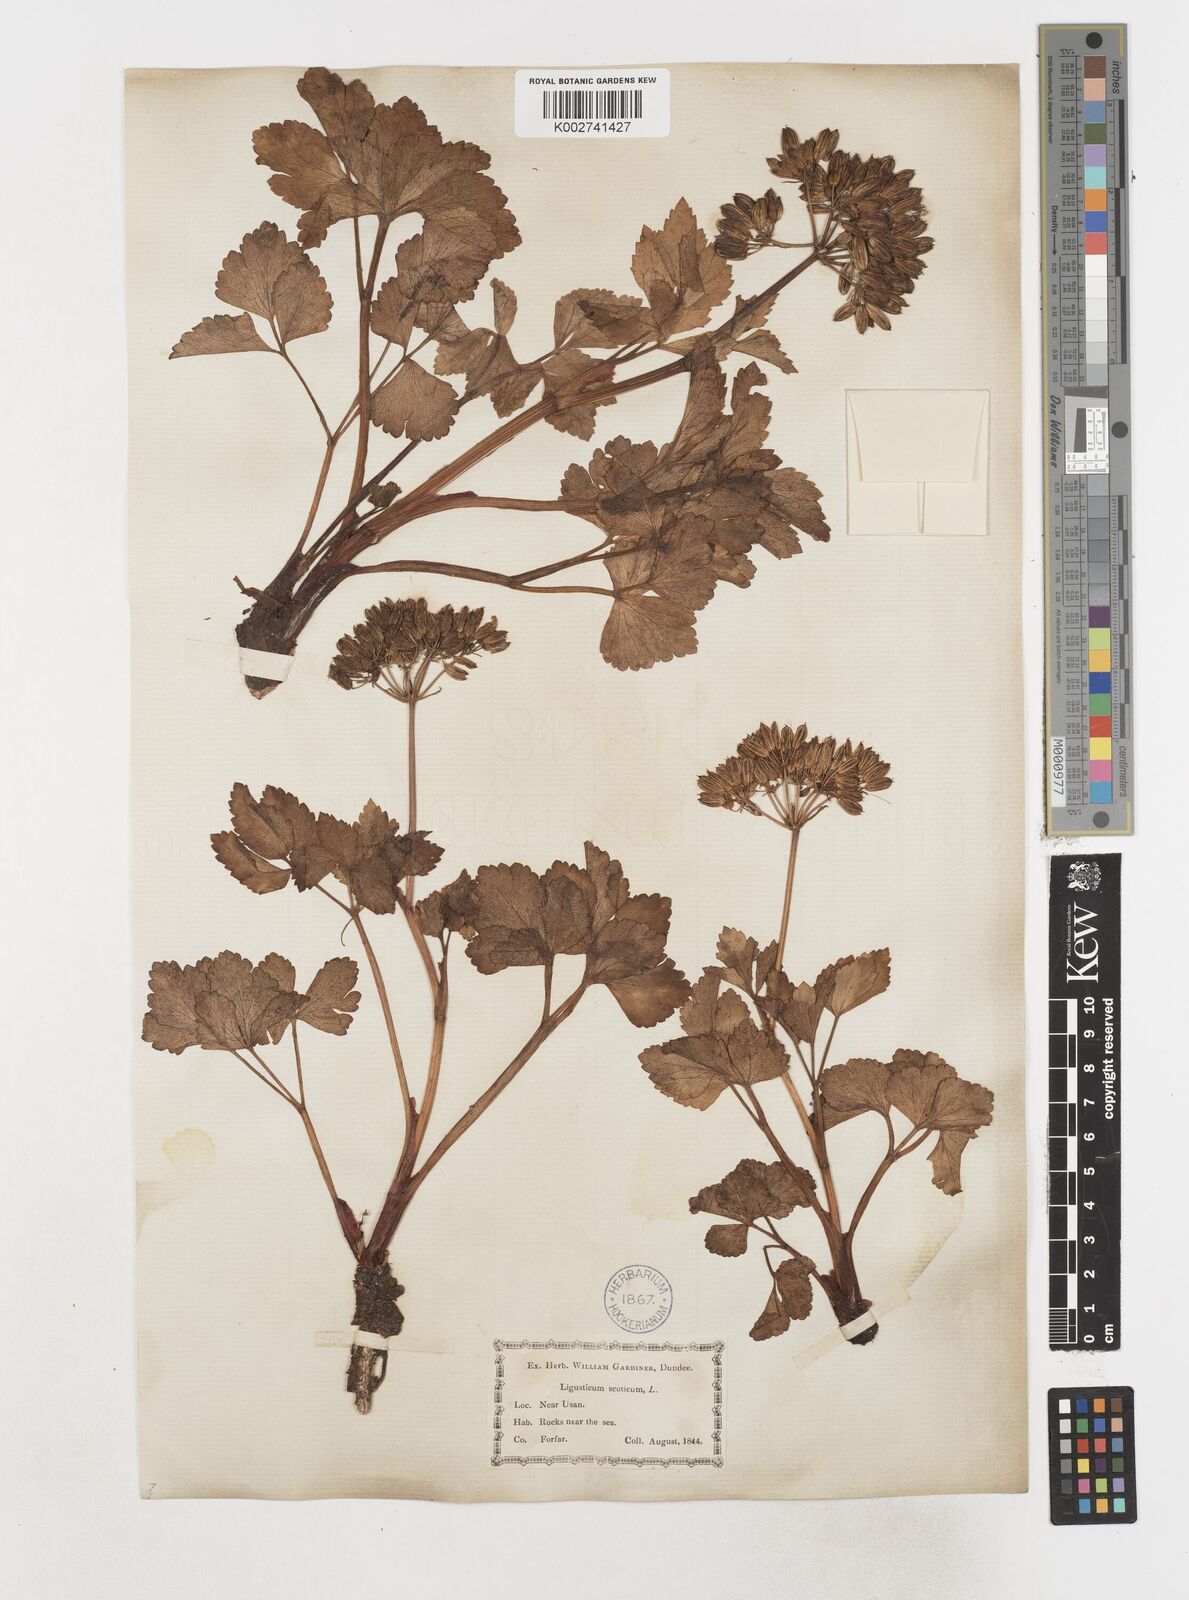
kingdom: Plantae
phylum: Tracheophyta
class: Magnoliopsida
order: Apiales
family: Apiaceae
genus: Ligusticum
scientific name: Ligusticum scothicum
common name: Beach lovage
